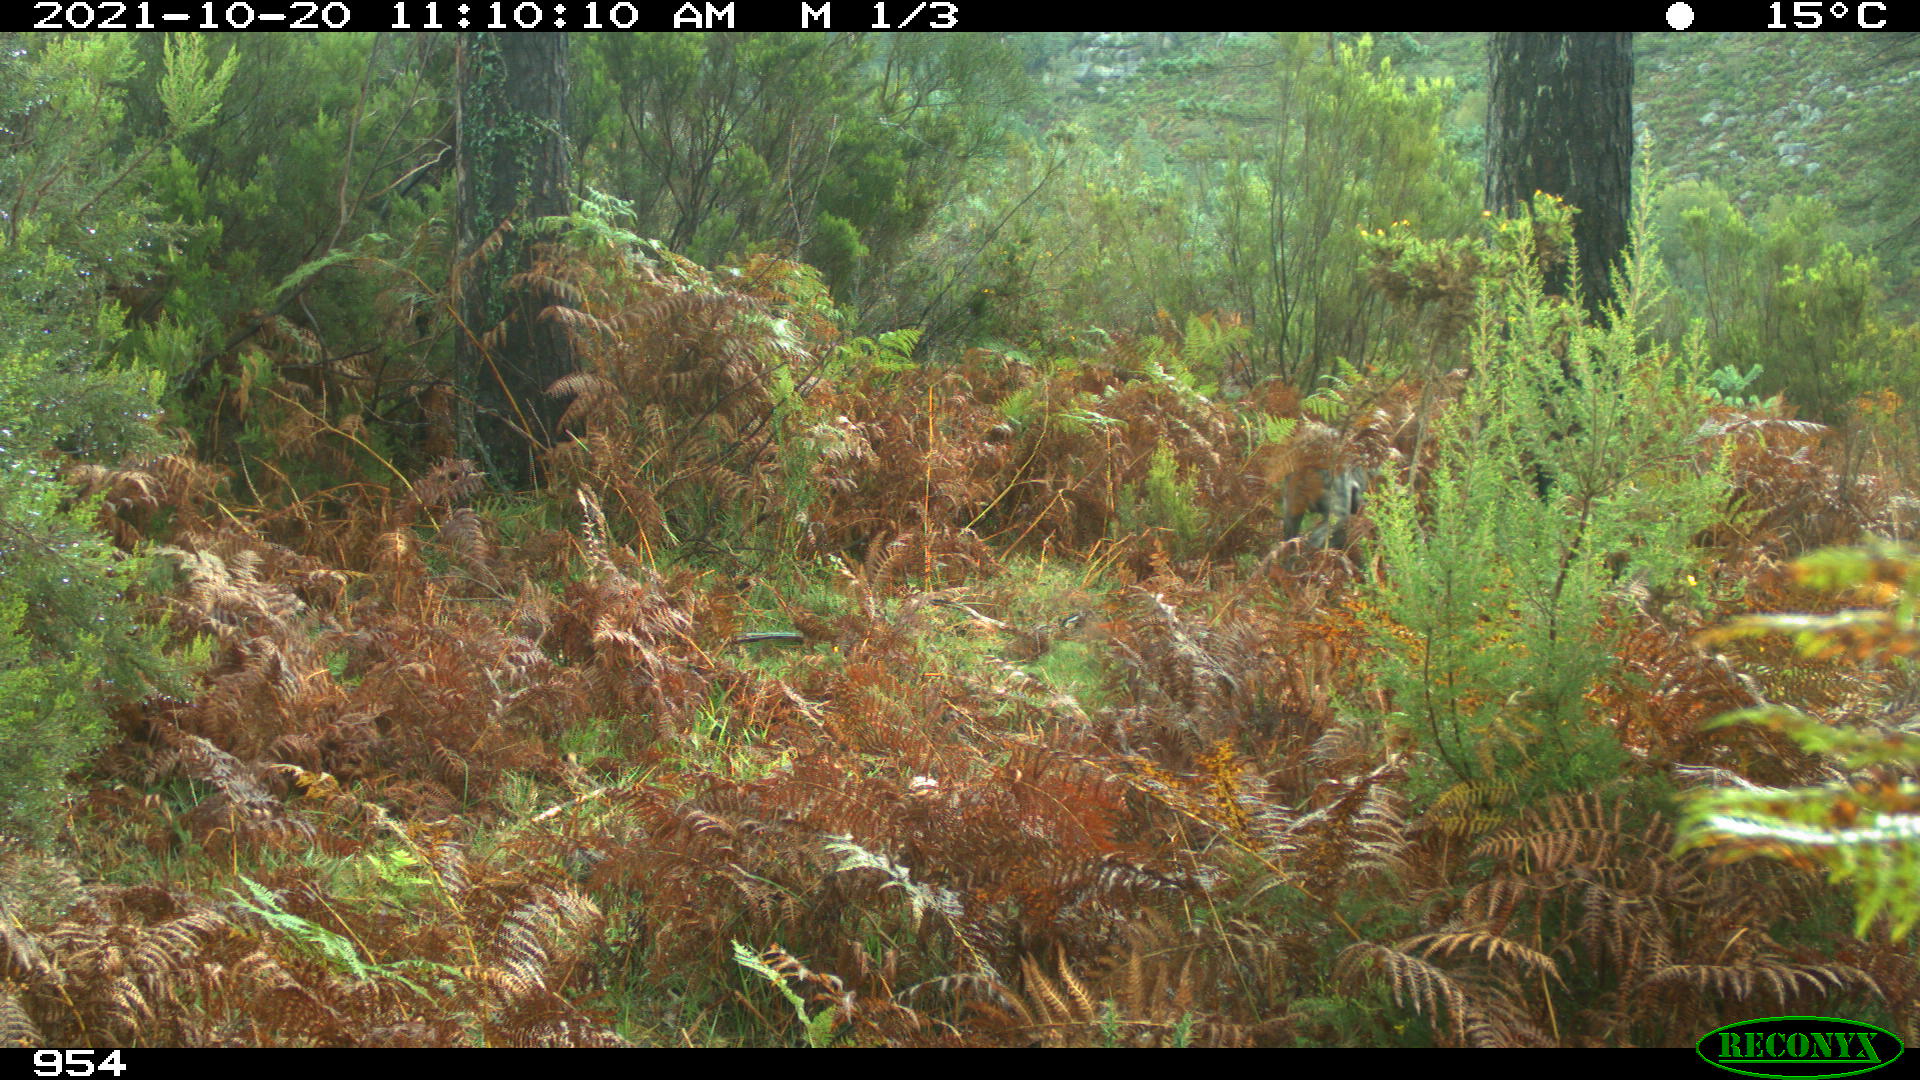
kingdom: Animalia
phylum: Chordata
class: Mammalia
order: Carnivora
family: Canidae
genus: Canis
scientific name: Canis lupus
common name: Gray wolf
